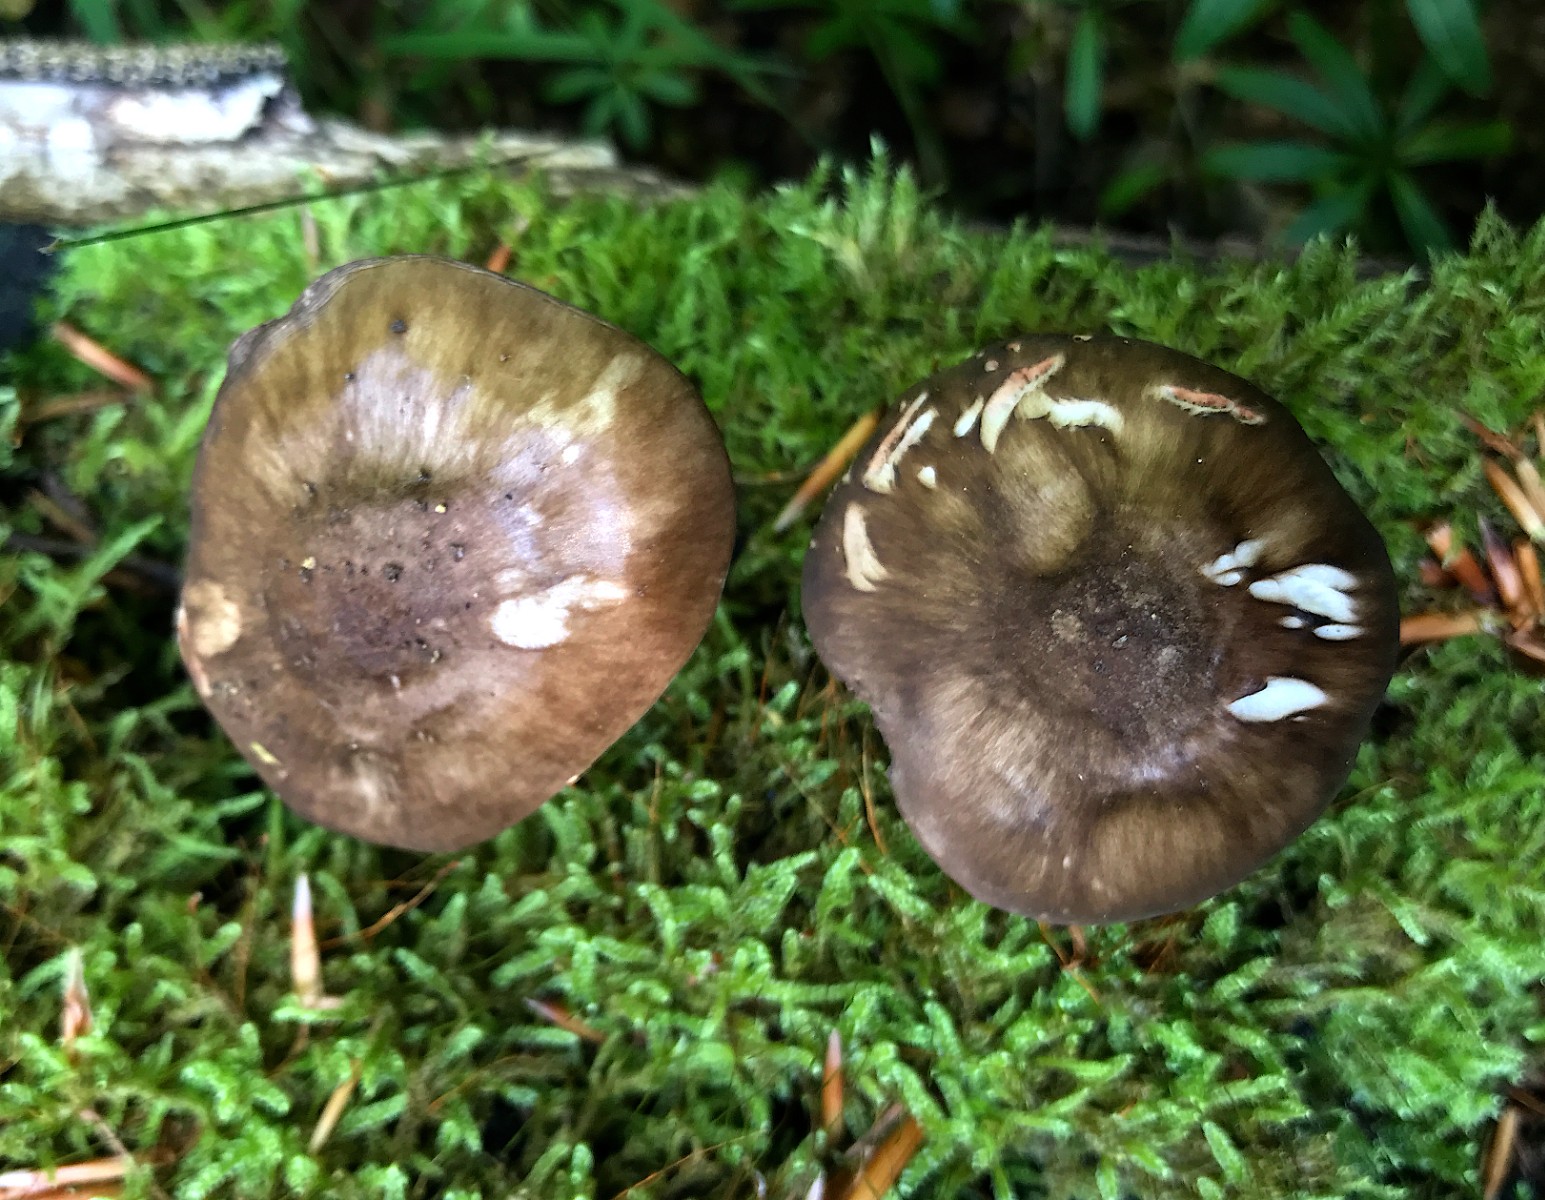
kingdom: Fungi
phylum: Basidiomycota
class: Agaricomycetes
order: Agaricales
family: Pluteaceae
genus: Pluteus
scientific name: Pluteus cervinus
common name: sodfarvet skærmhat
